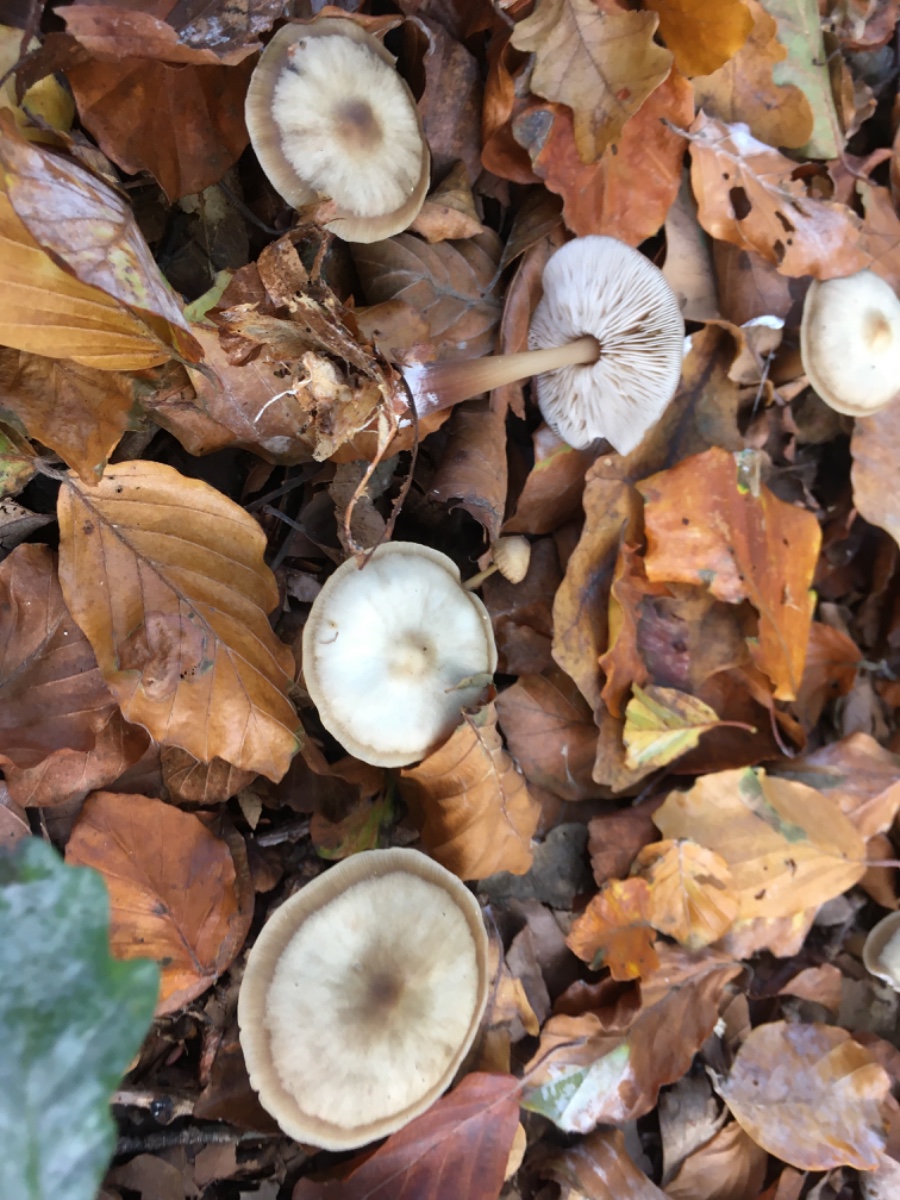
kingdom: Fungi
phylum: Basidiomycota
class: Agaricomycetes
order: Agaricales
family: Omphalotaceae
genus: Rhodocollybia
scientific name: Rhodocollybia asema
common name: horngrå fladhat
